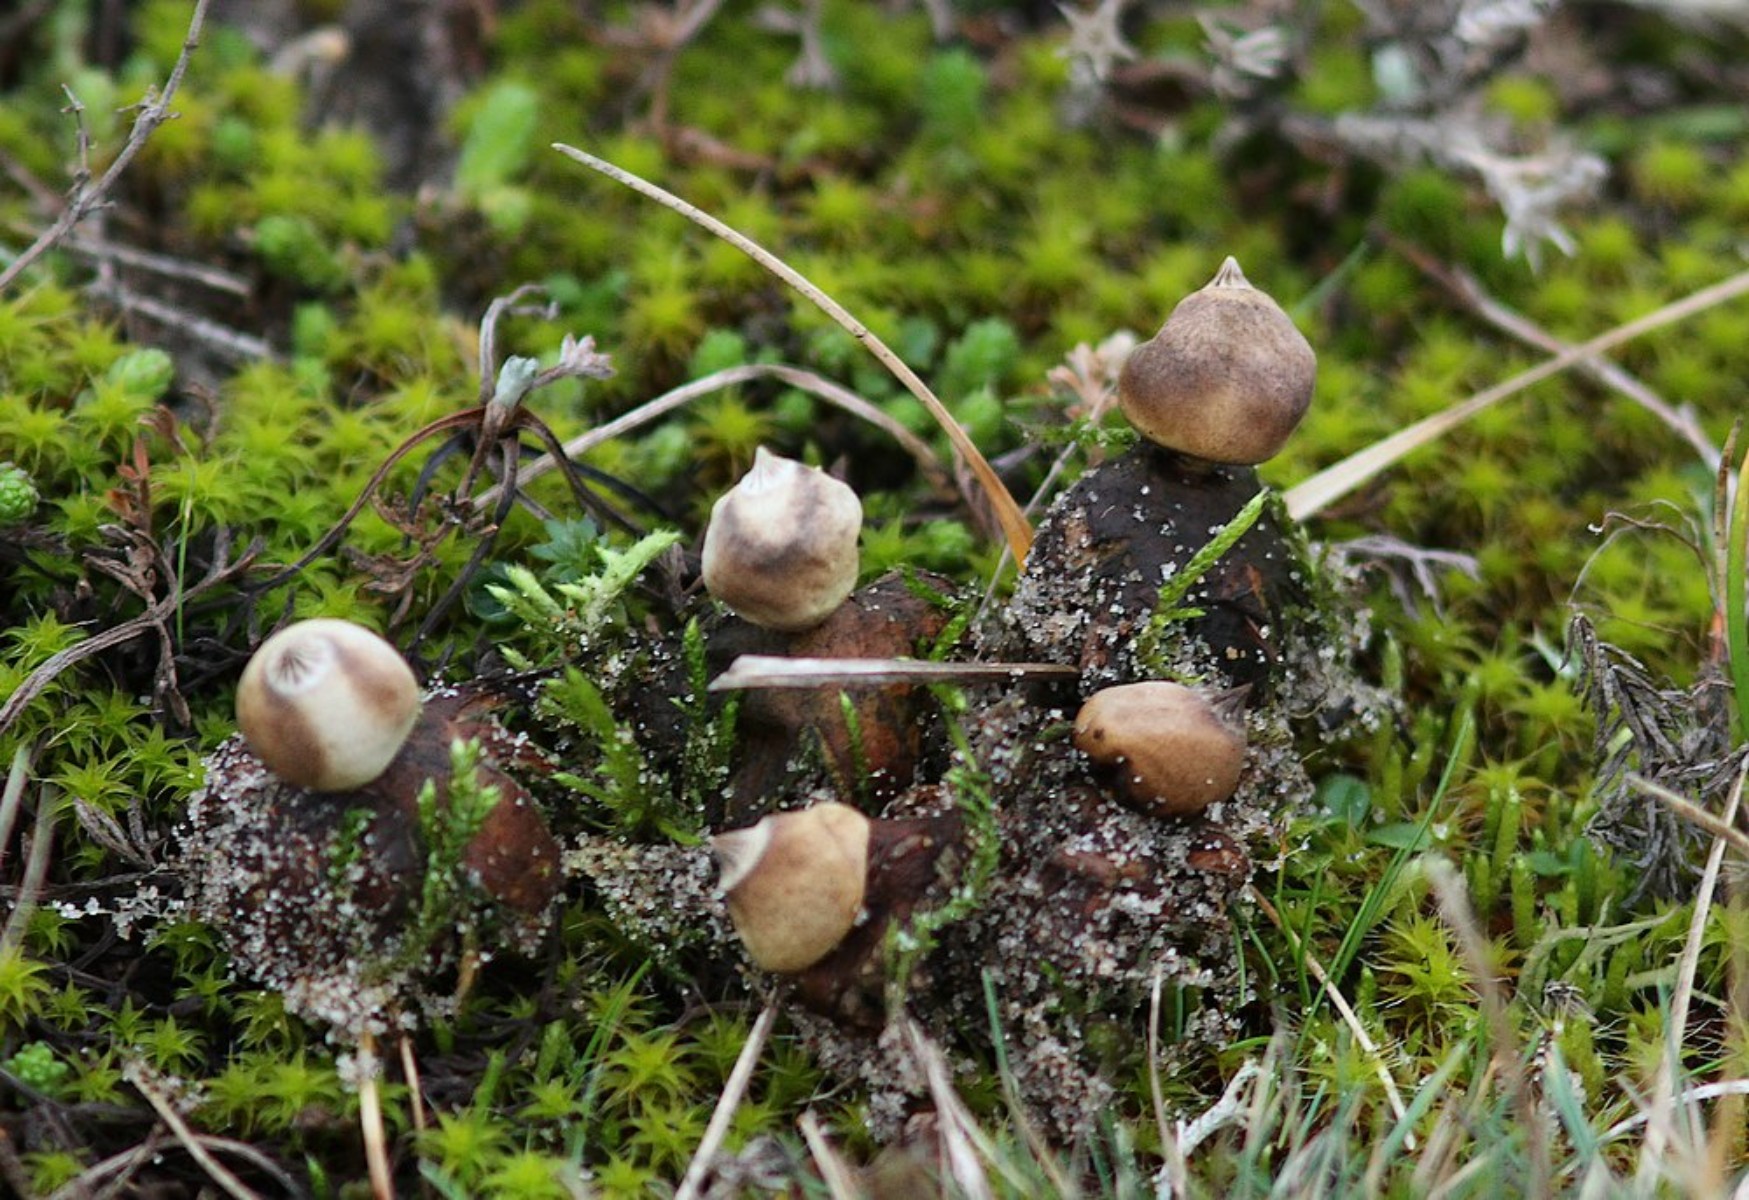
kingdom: Fungi
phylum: Basidiomycota
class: Agaricomycetes
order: Geastrales
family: Geastraceae
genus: Geastrum
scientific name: Geastrum striatum
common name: dværg-stjernebold
